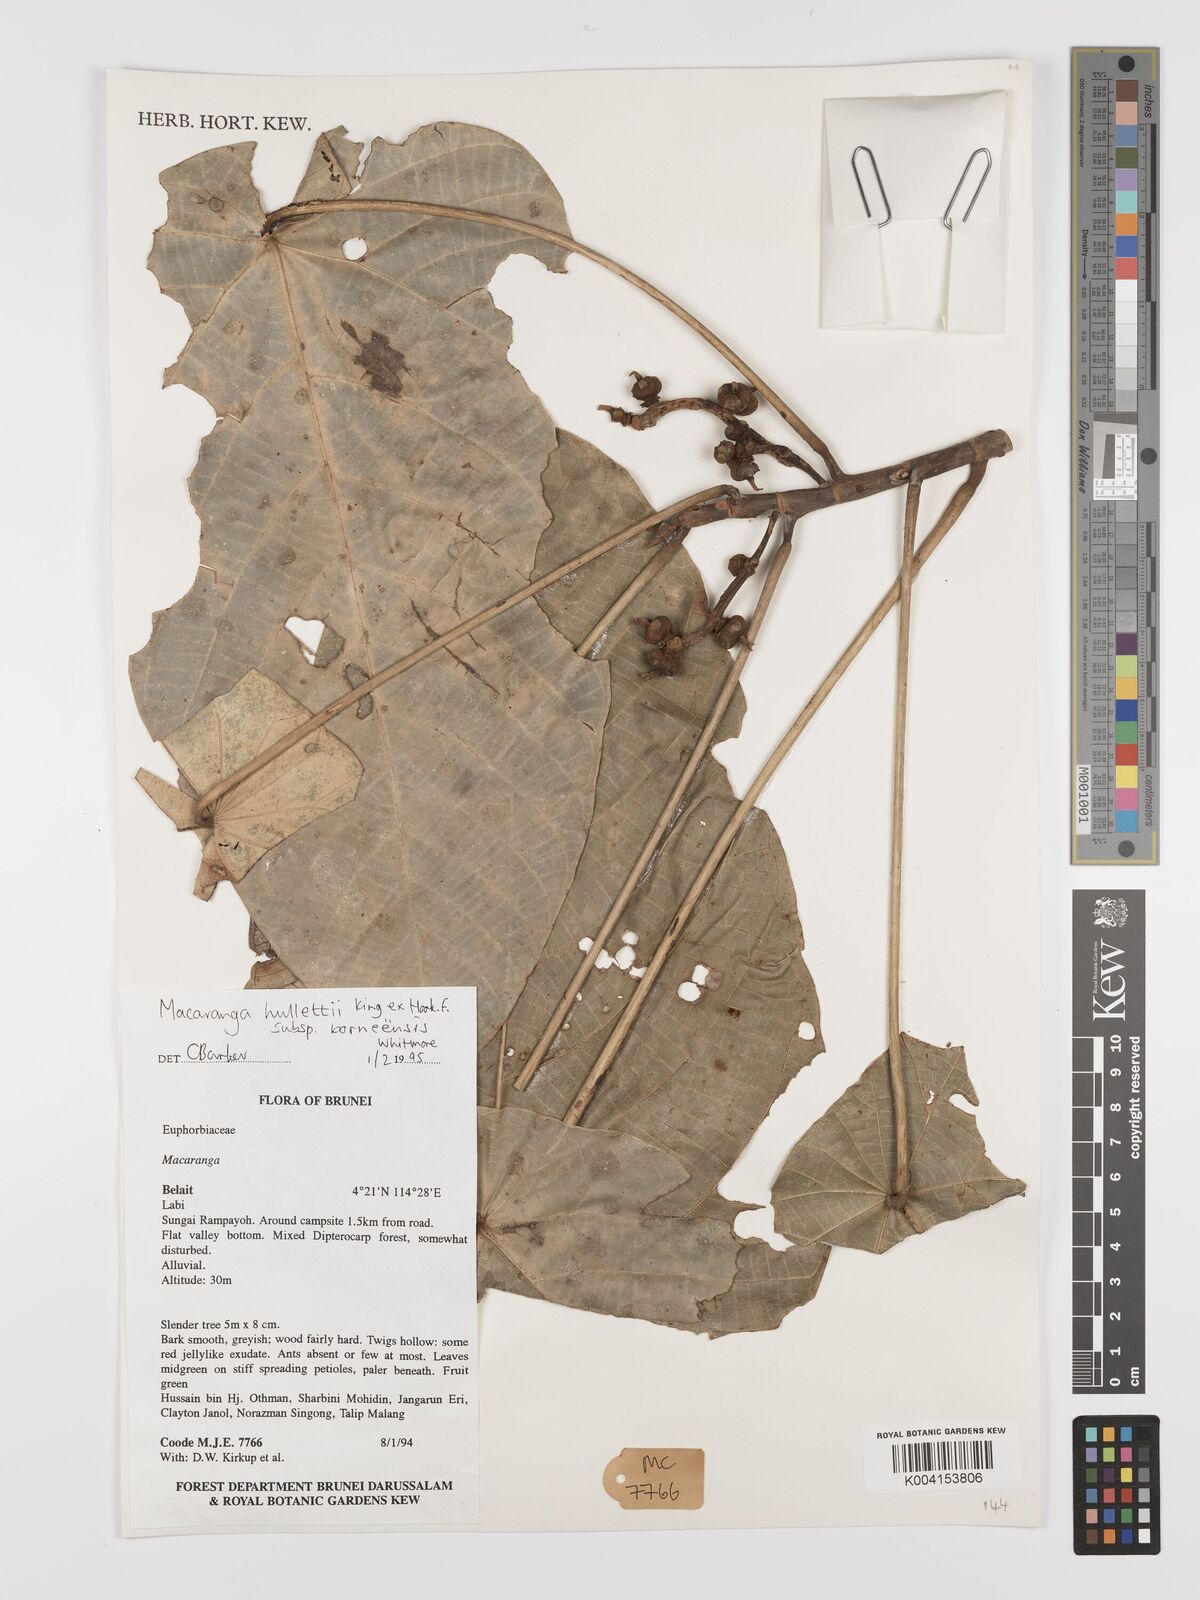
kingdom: Plantae
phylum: Tracheophyta
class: Magnoliopsida
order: Malpighiales
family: Euphorbiaceae
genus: Macaranga
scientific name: Macaranga hullettii
